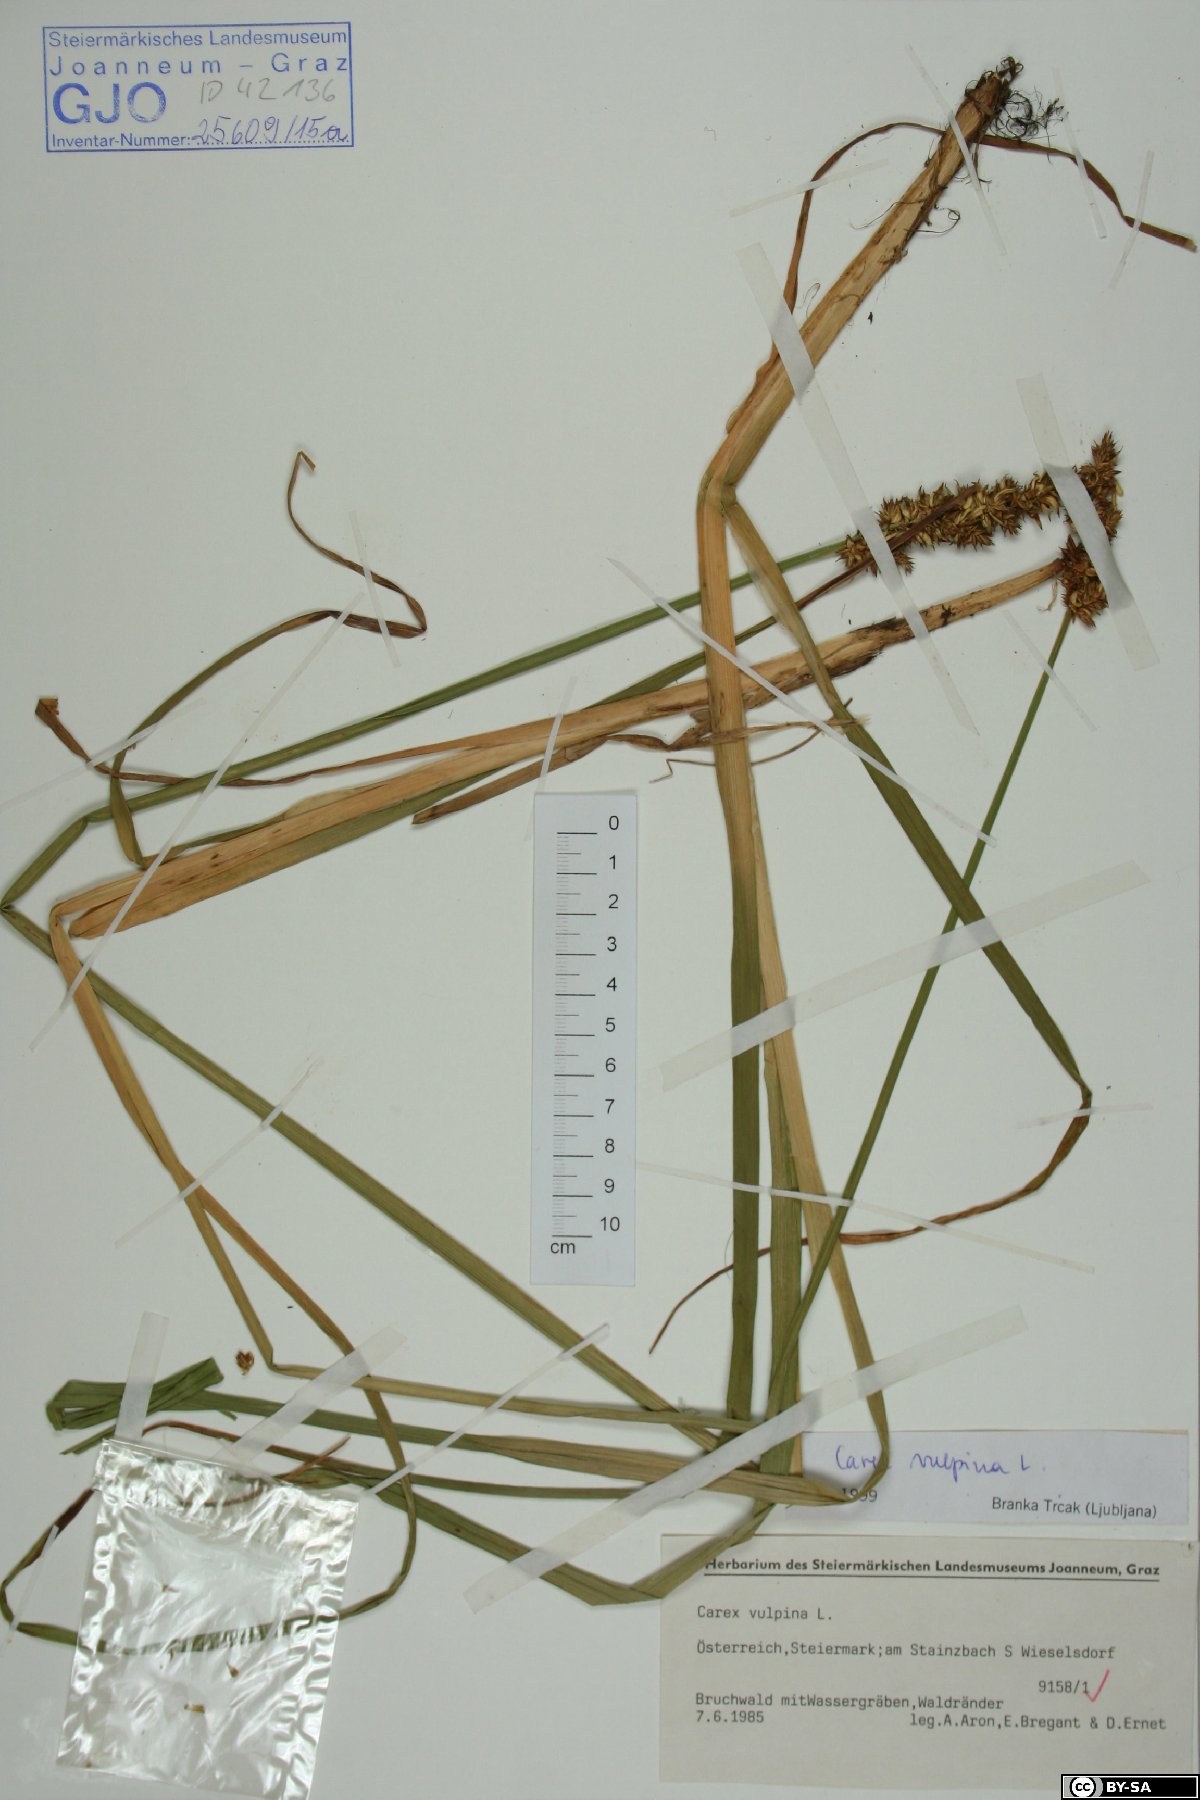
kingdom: Plantae
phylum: Tracheophyta
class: Liliopsida
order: Poales
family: Cyperaceae
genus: Carex
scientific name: Carex vulpina
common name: True fox-sedge
